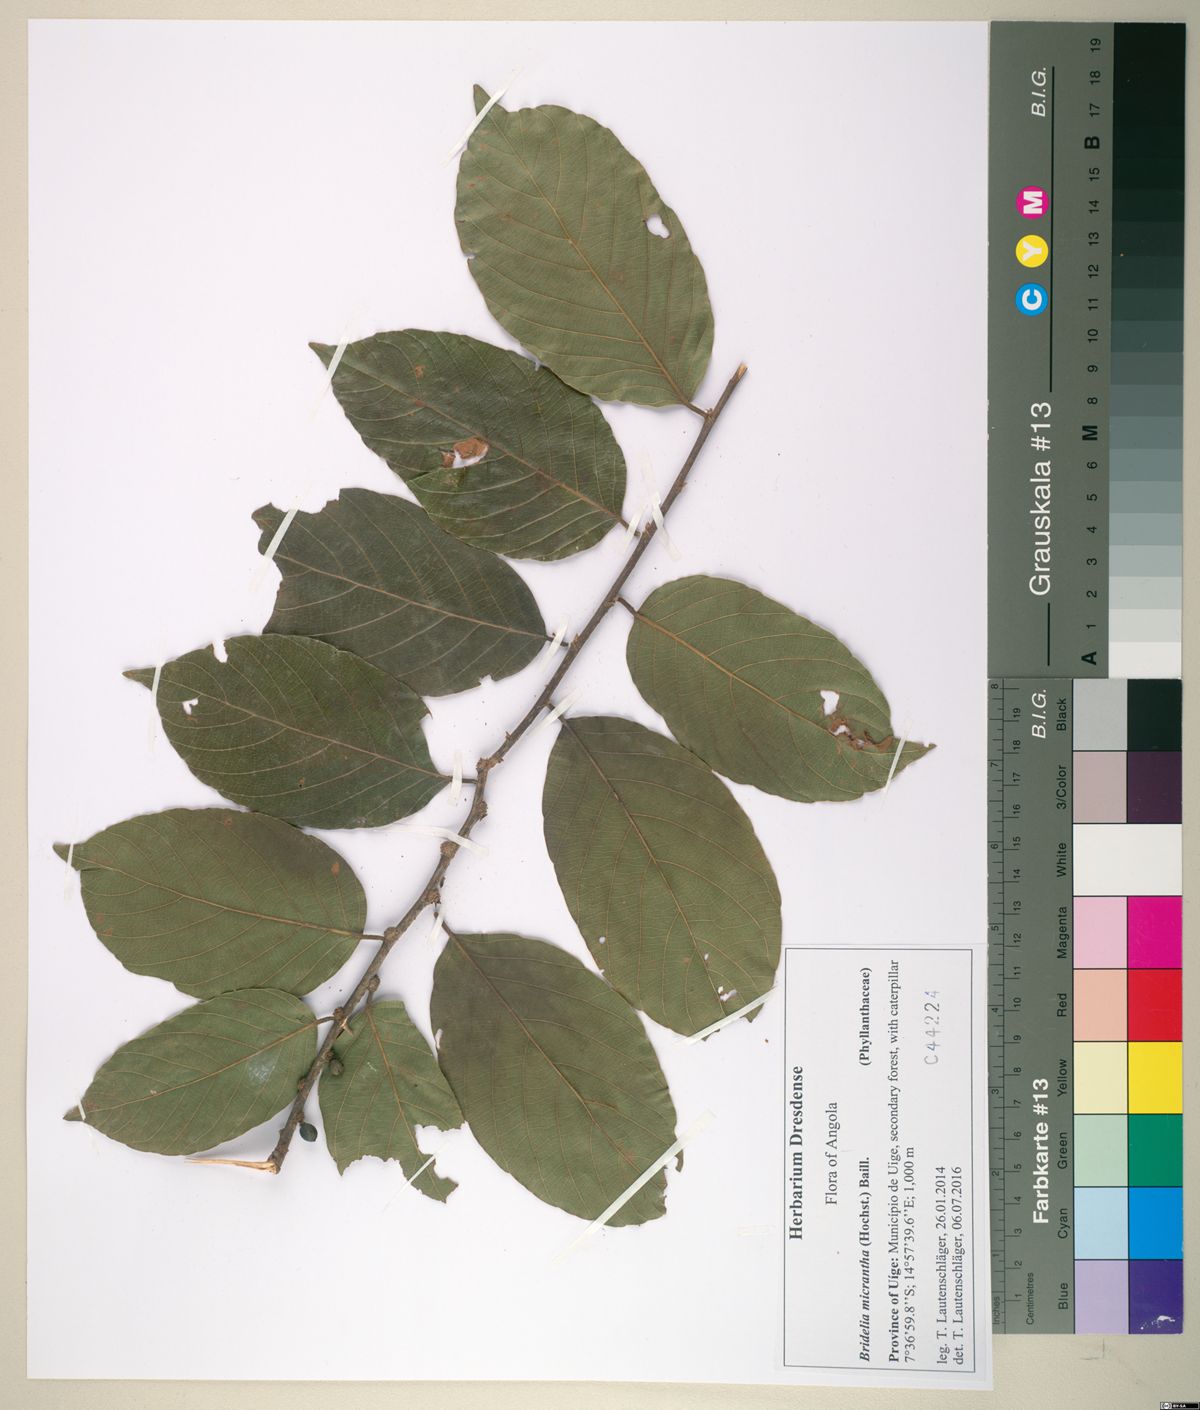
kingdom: Plantae
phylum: Tracheophyta
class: Magnoliopsida
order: Malpighiales
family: Phyllanthaceae
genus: Bridelia
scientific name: Bridelia micrantha
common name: Bridelia
